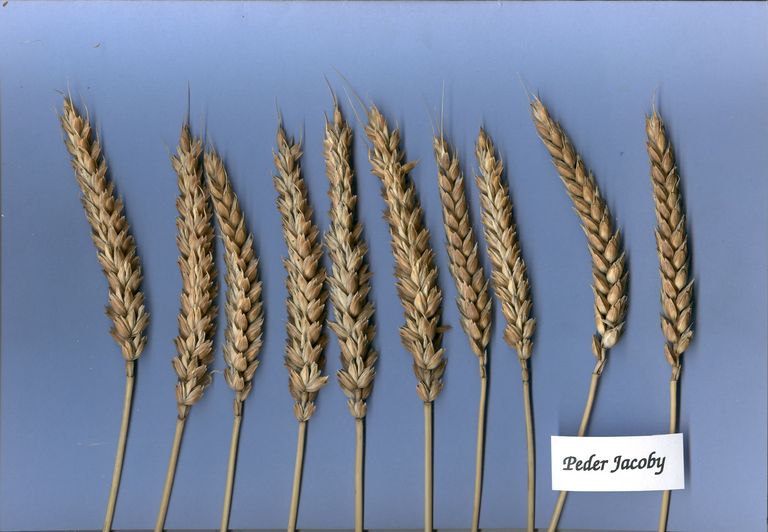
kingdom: Plantae
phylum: Tracheophyta
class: Liliopsida
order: Poales
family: Poaceae
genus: Triticum
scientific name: Triticum aestivum
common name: Common wheat
